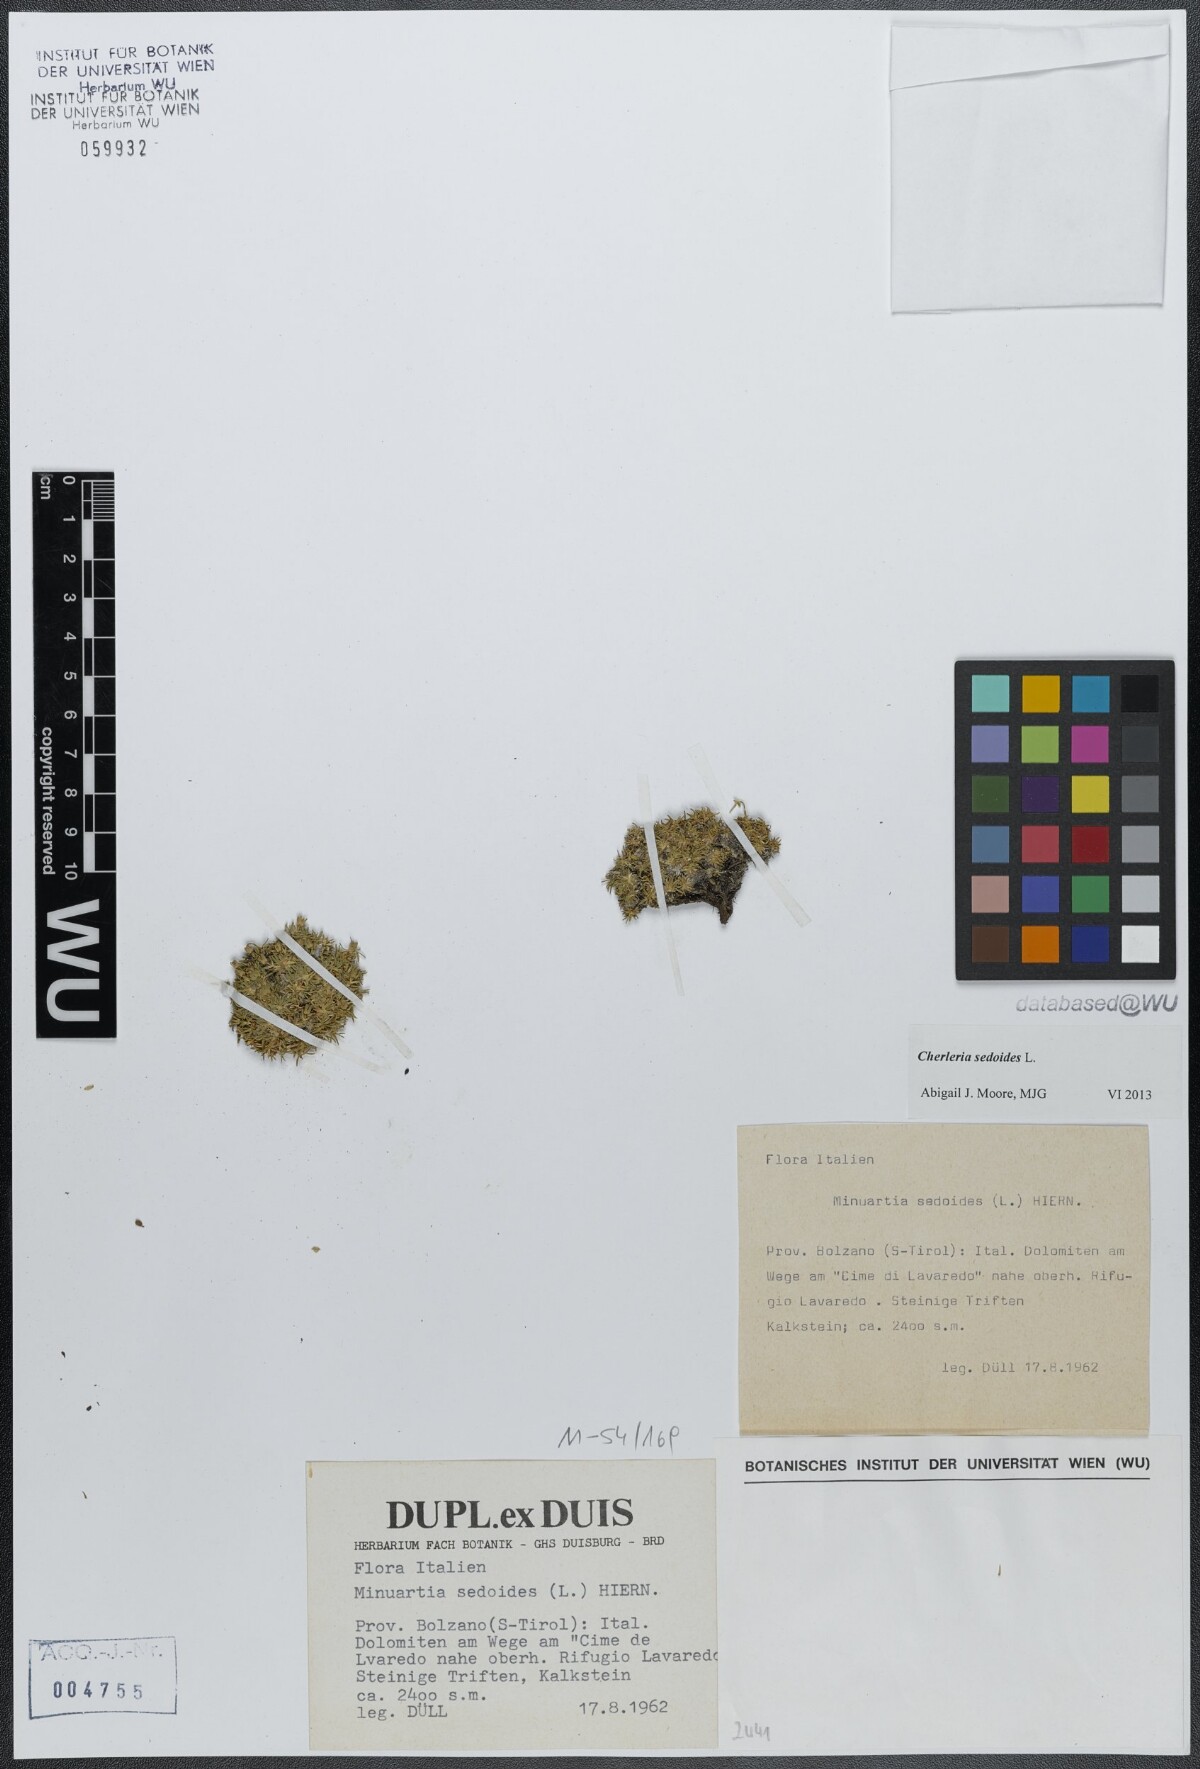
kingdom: Plantae
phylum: Tracheophyta
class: Magnoliopsida
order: Caryophyllales
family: Caryophyllaceae
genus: Cherleria
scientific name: Cherleria sedoides
